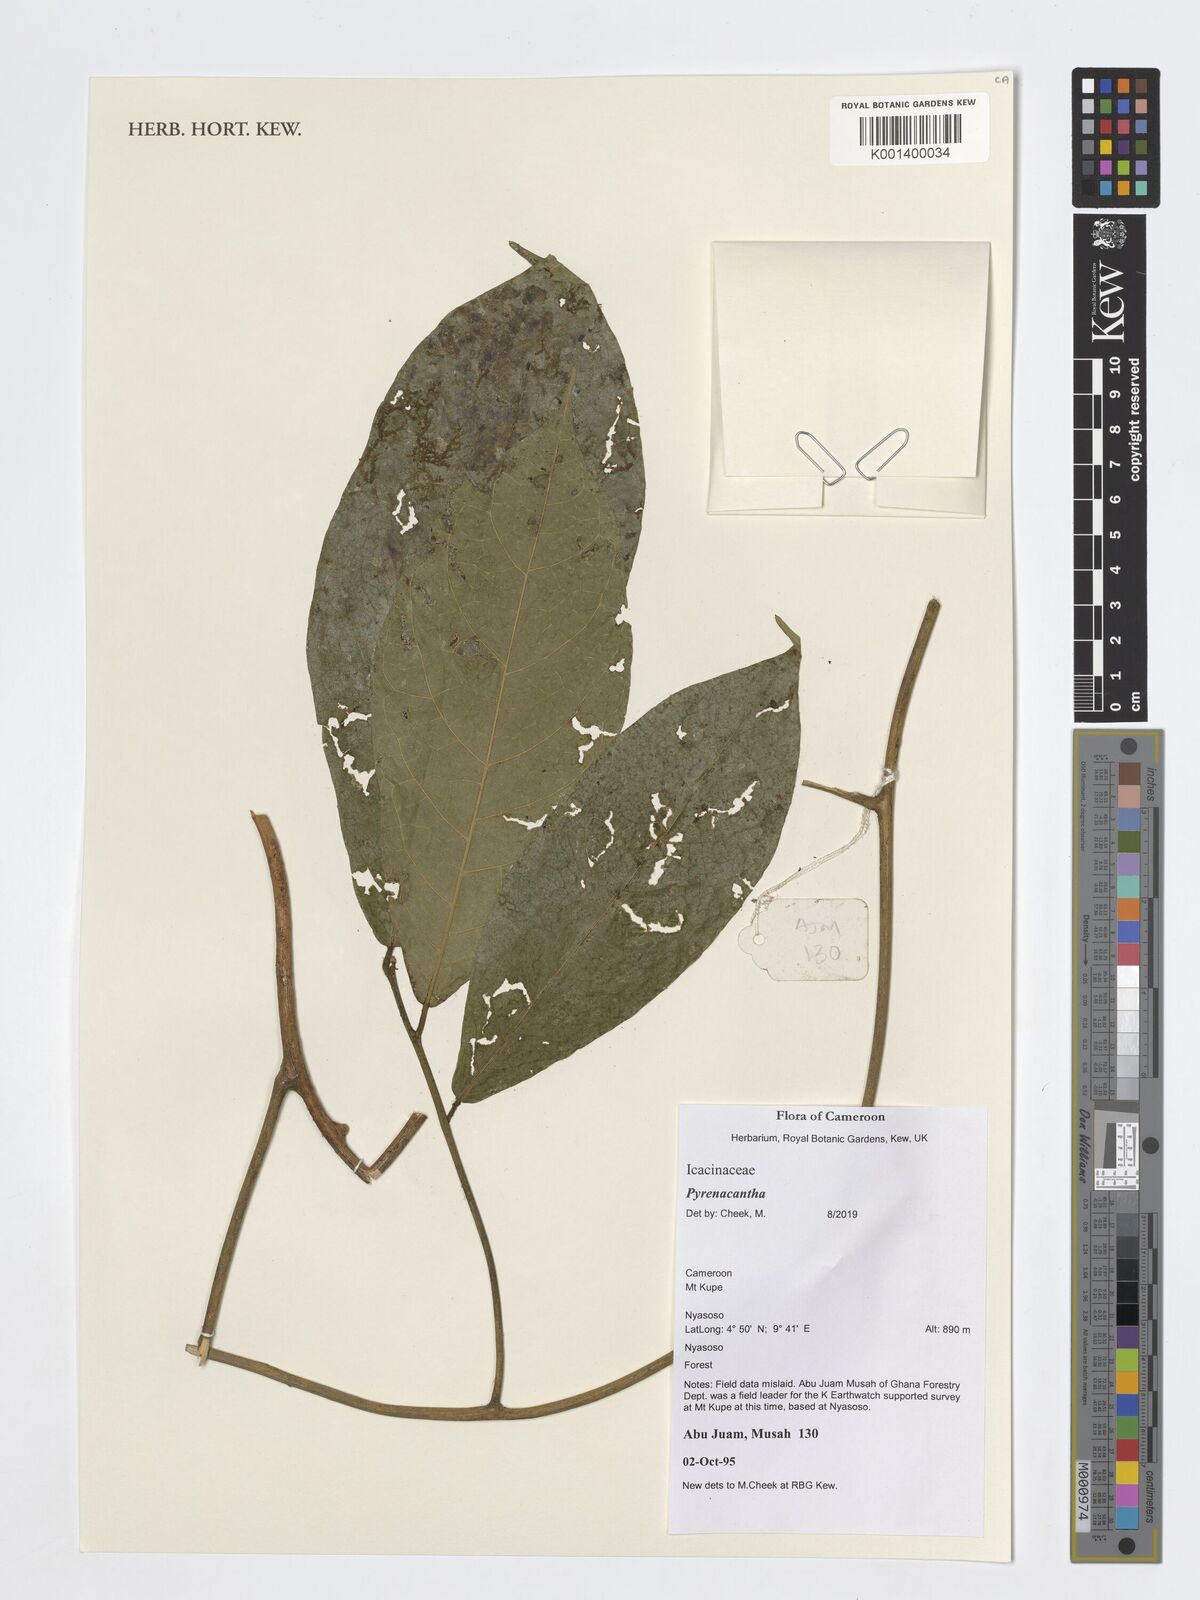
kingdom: Plantae
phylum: Tracheophyta
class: Magnoliopsida
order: Icacinales
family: Icacinaceae
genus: Pyrenacantha
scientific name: Pyrenacantha
